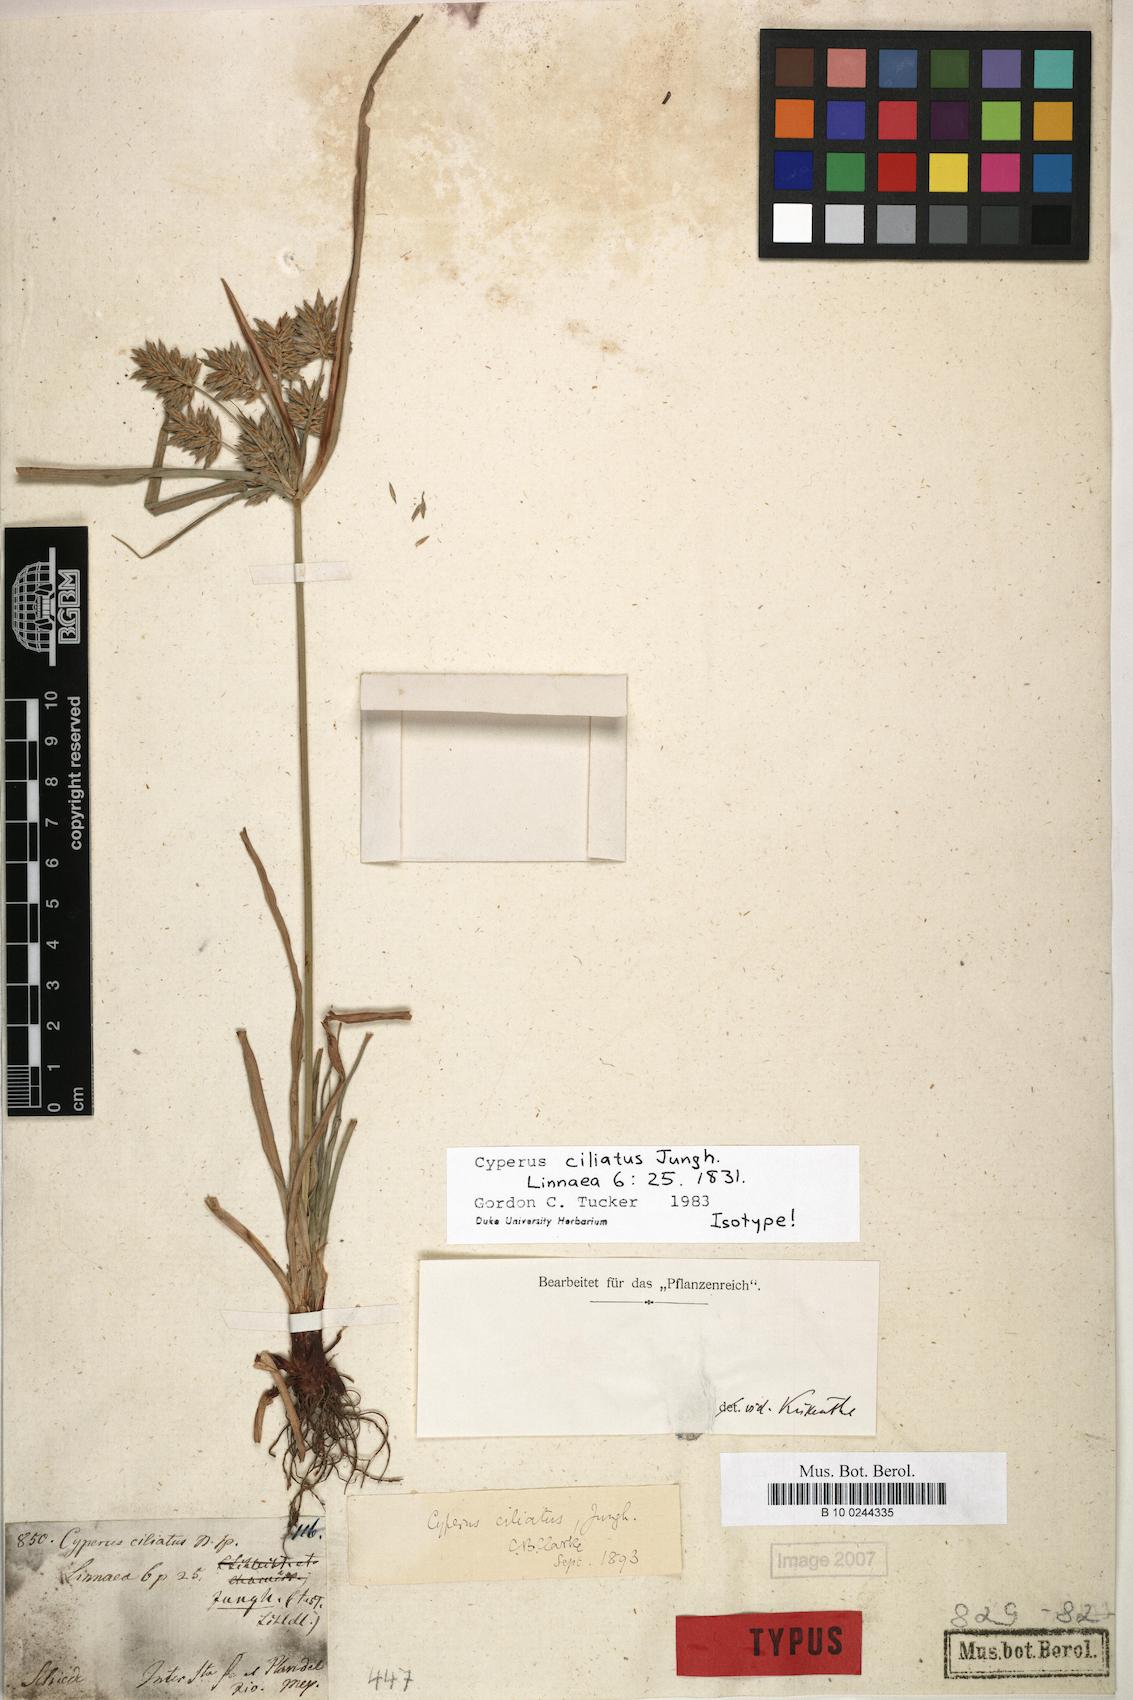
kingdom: Plantae
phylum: Tracheophyta
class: Liliopsida
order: Poales
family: Cyperaceae
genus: Cyperus
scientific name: Cyperus ciliatus
